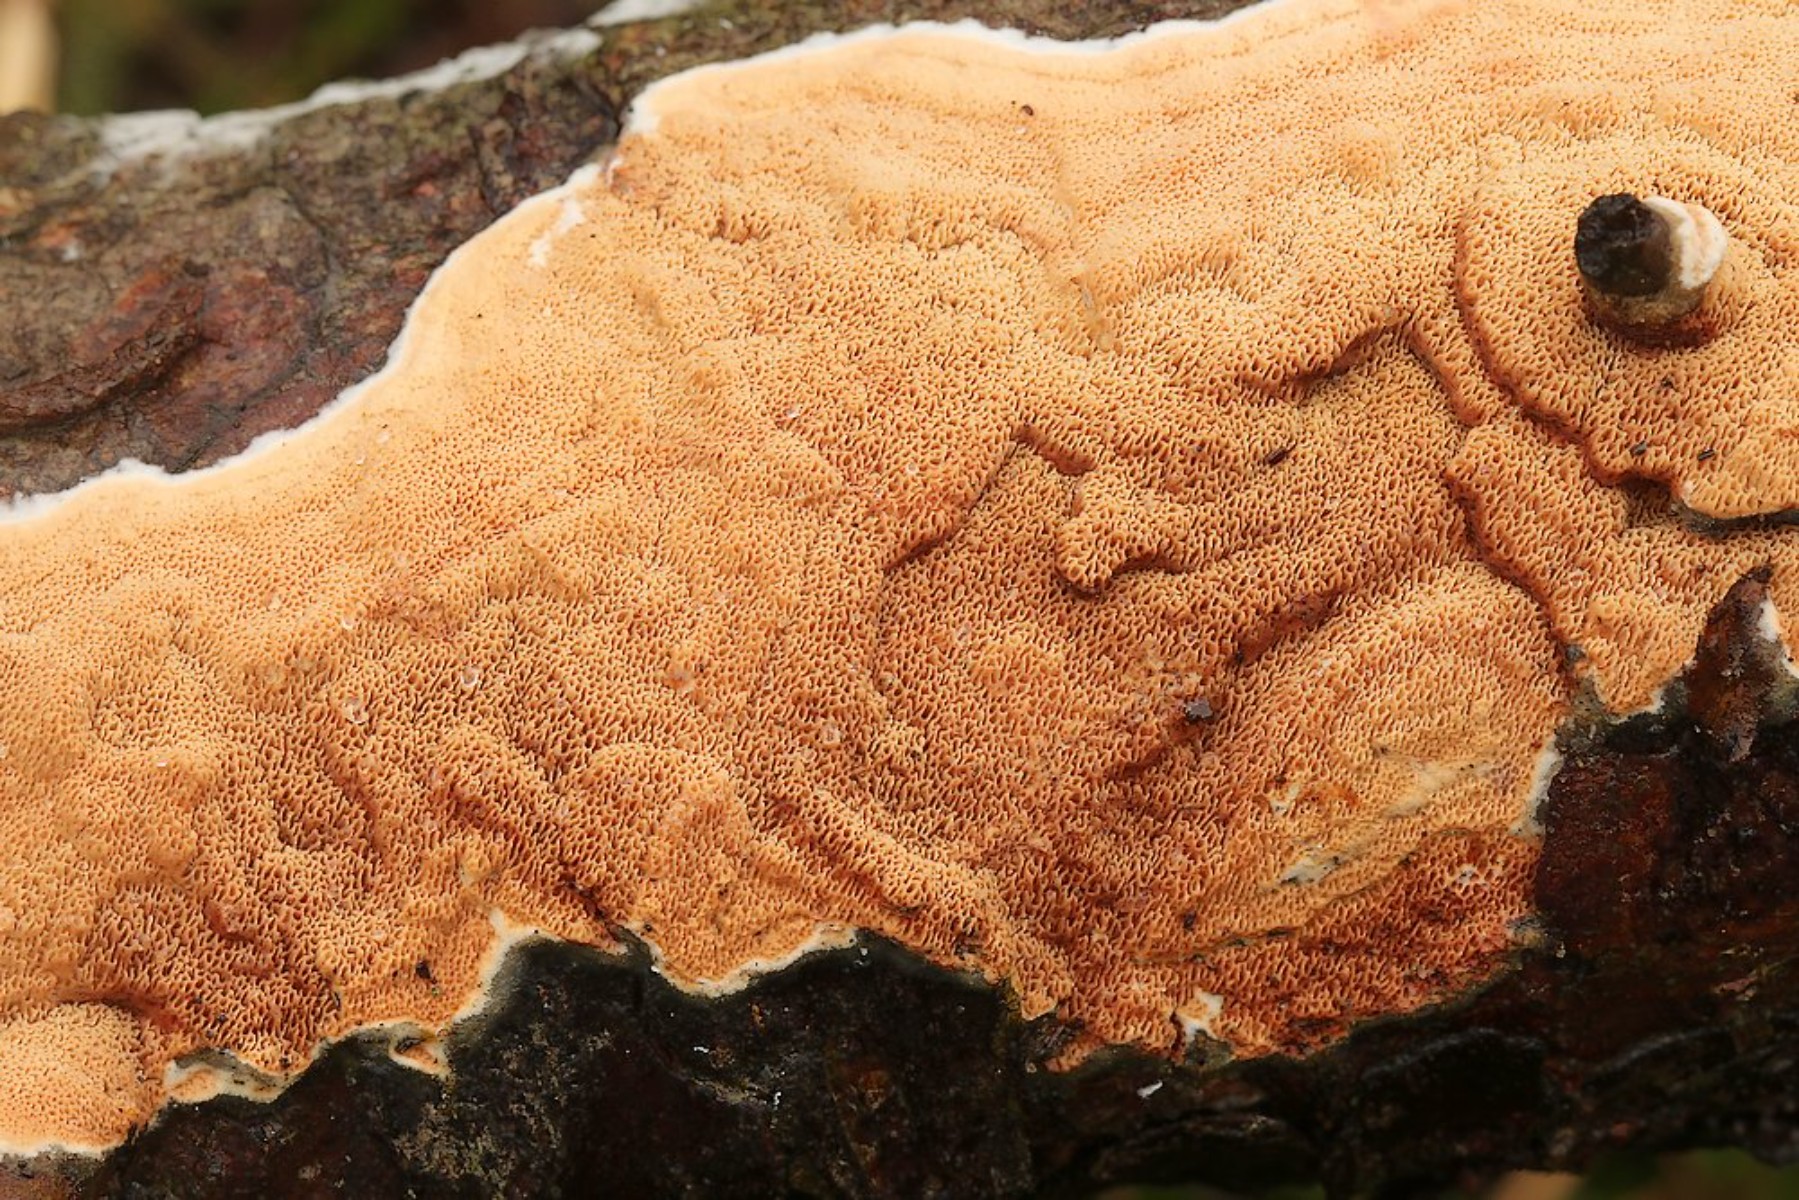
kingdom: Fungi
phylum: Basidiomycota
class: Agaricomycetes
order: Polyporales
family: Irpicaceae
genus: Meruliopsis
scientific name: Meruliopsis taxicola
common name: purpurbrun foldporesvamp
